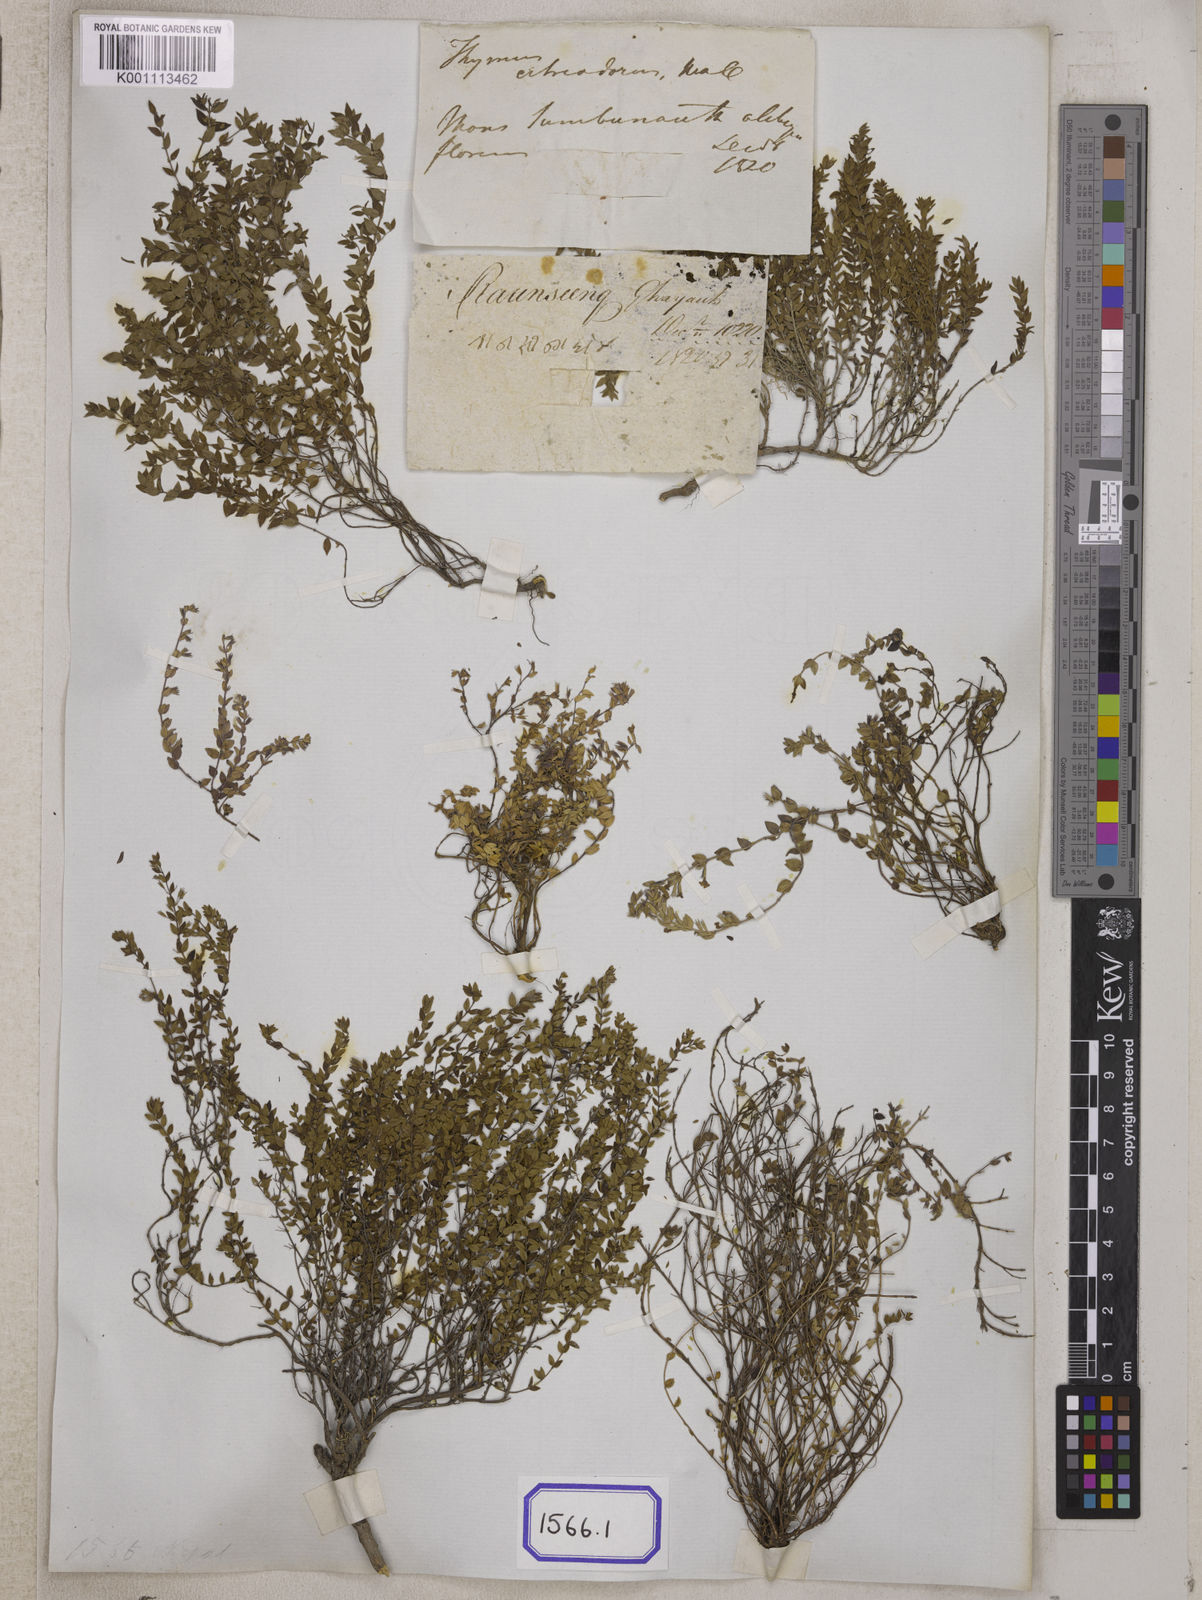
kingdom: Plantae
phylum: Tracheophyta
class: Magnoliopsida
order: Lamiales
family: Lamiaceae
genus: Thymus
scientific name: Thymus
